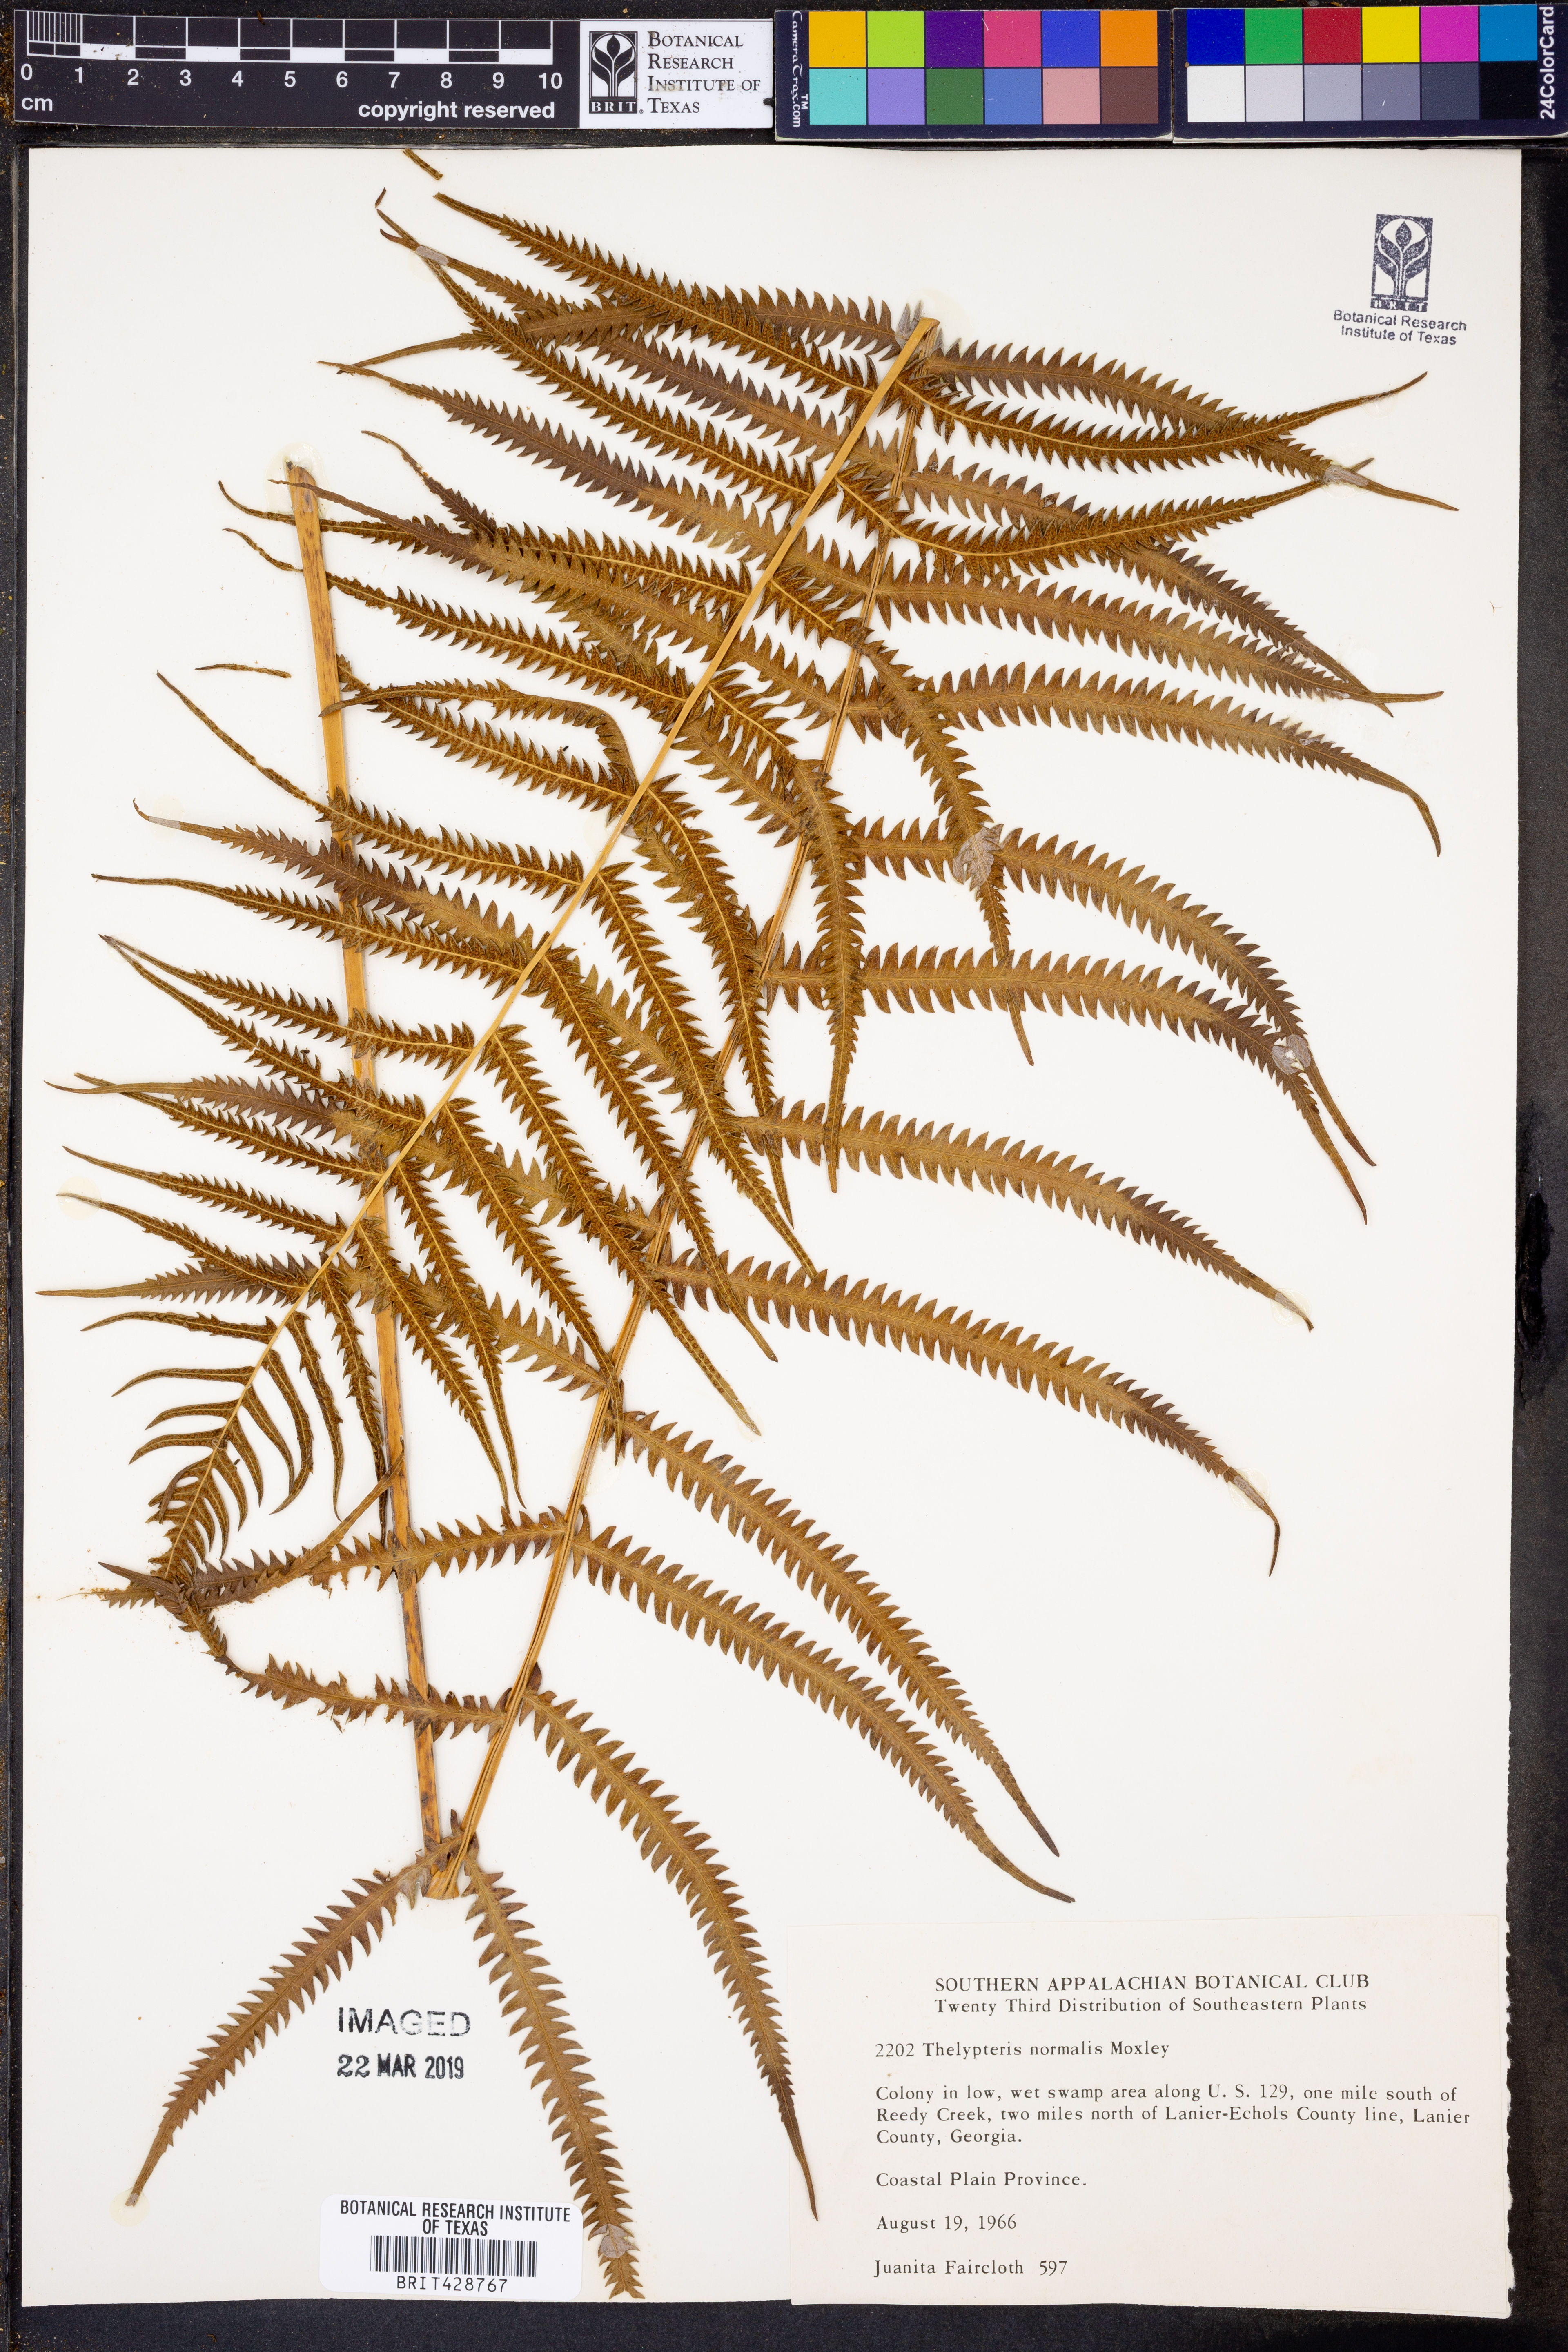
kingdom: Plantae
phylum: Tracheophyta
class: Polypodiopsida
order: Polypodiales
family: Thelypteridaceae
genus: Pelazoneuron
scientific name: Pelazoneuron kunthii
